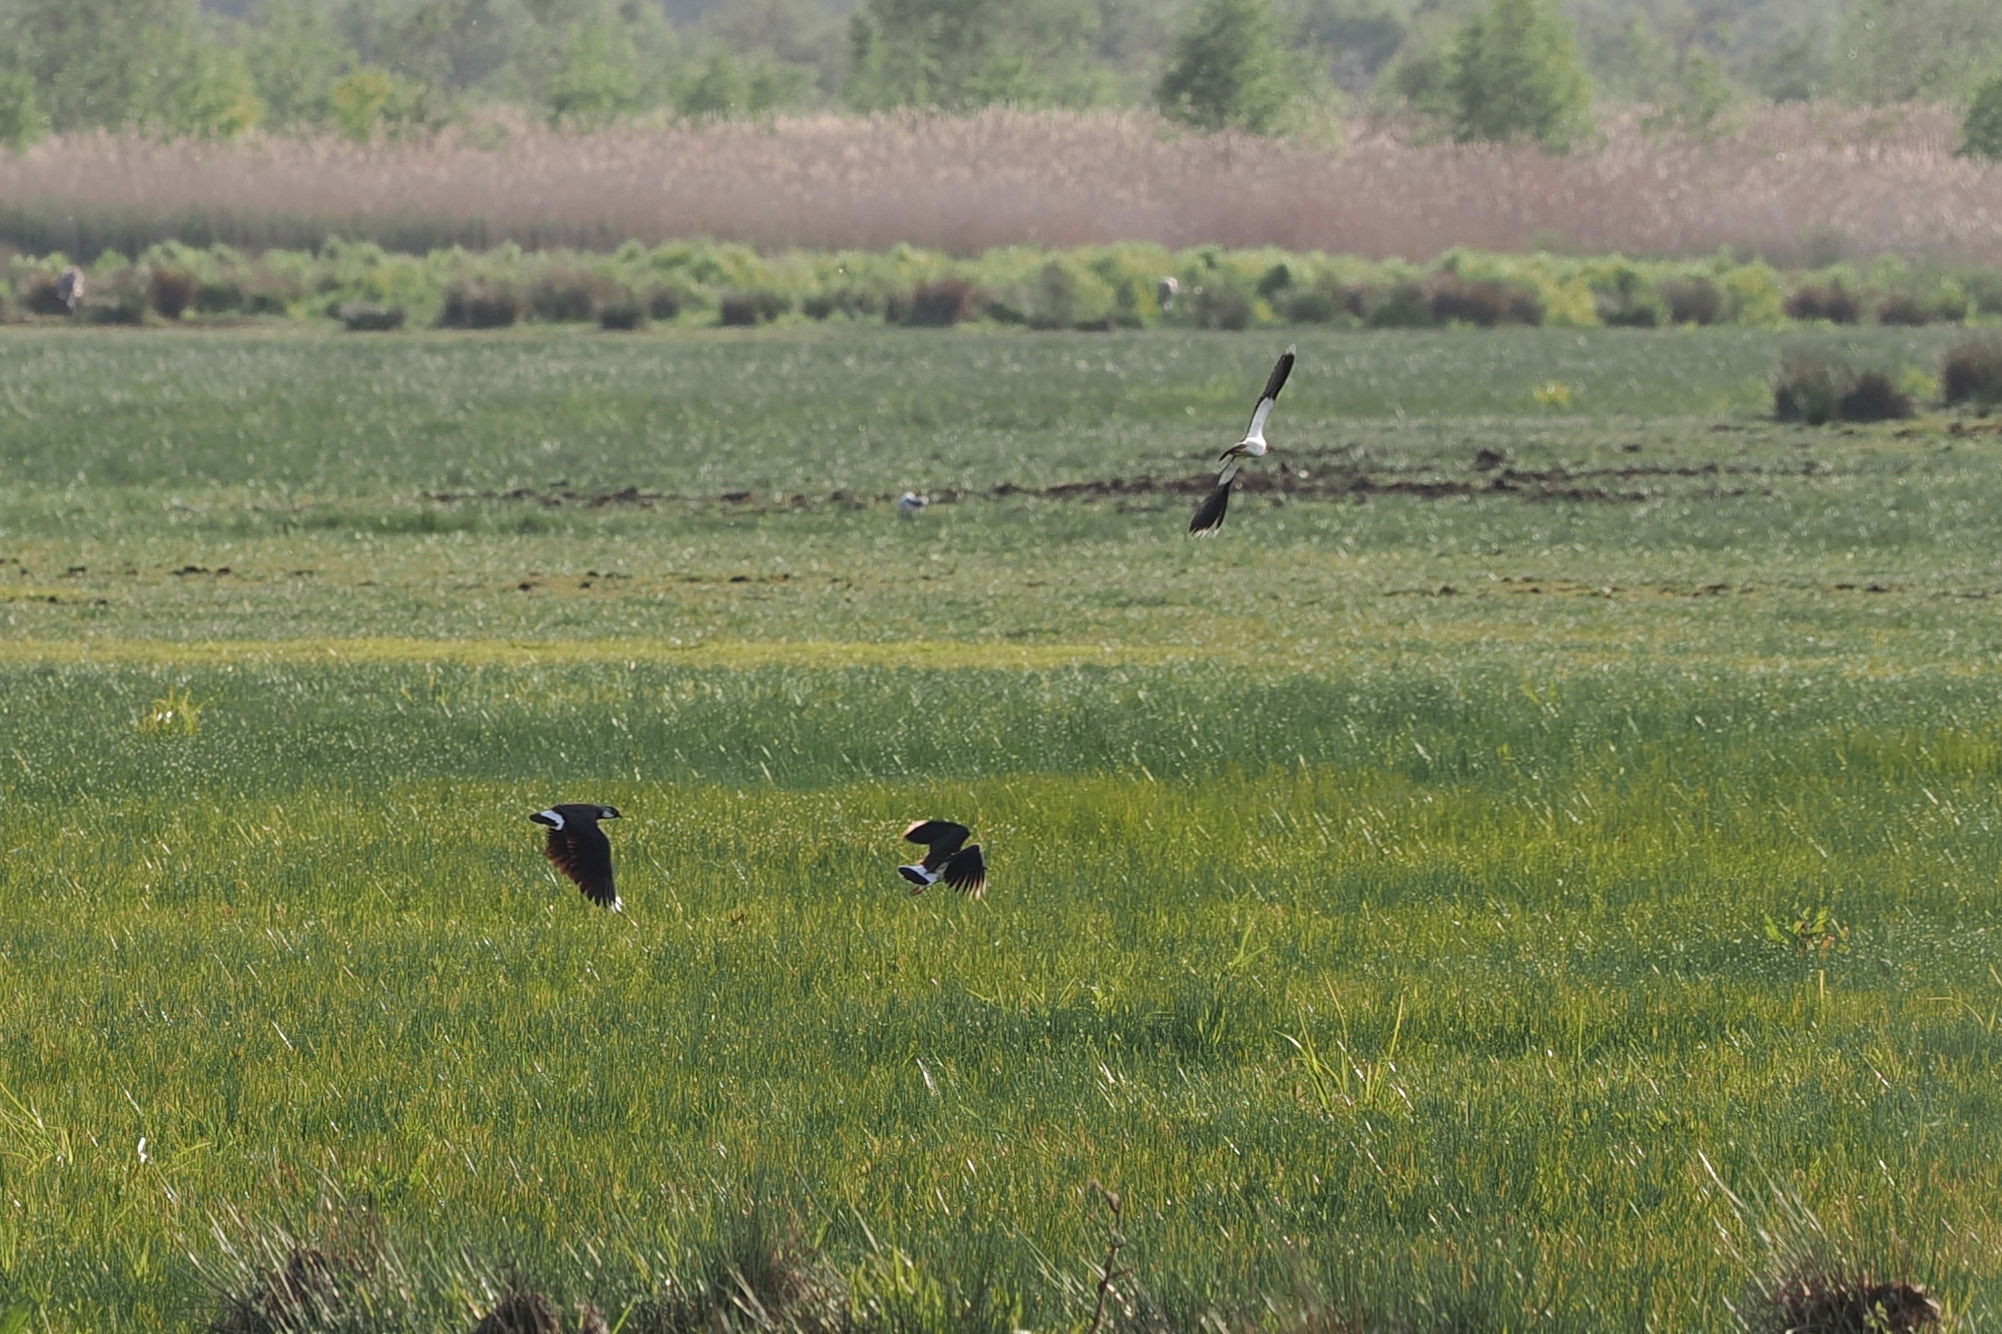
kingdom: Animalia
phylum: Chordata
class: Aves
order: Charadriiformes
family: Charadriidae
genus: Vanellus
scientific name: Vanellus vanellus
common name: Vibe
